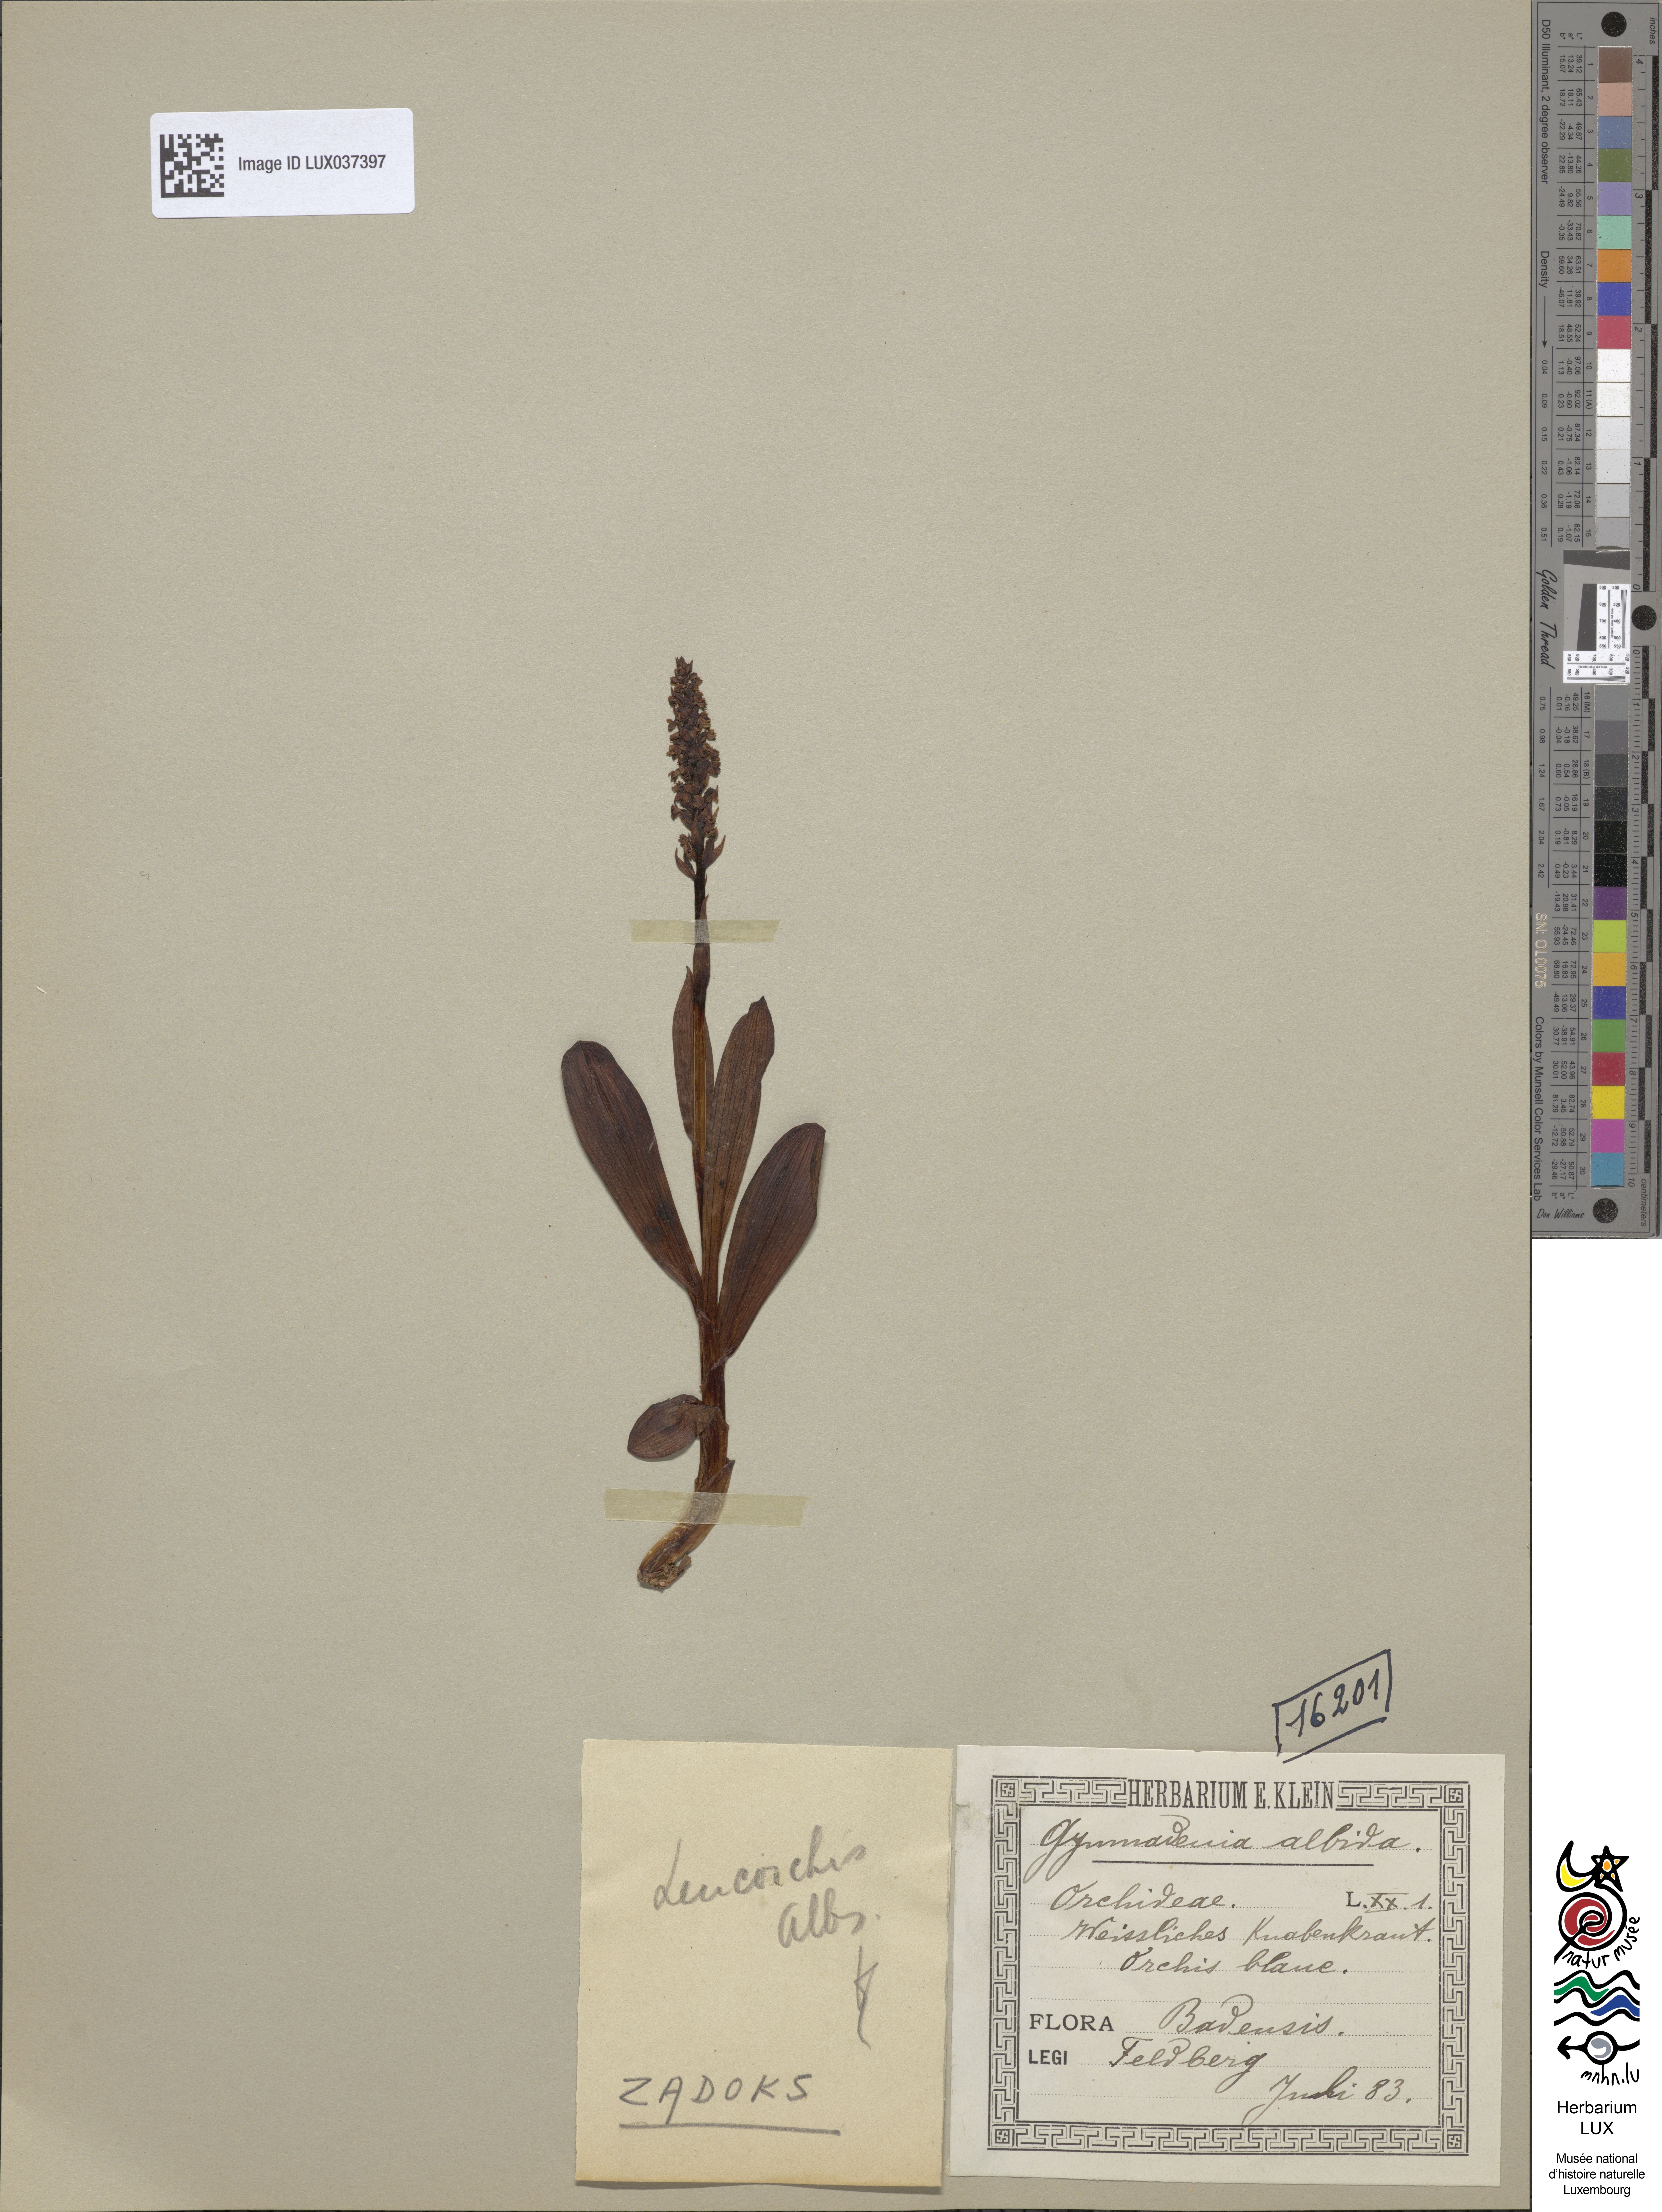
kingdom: Plantae
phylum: Tracheophyta
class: Liliopsida
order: Asparagales
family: Orchidaceae
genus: Pseudorchis
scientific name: Pseudorchis albida
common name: Small-white orchid
